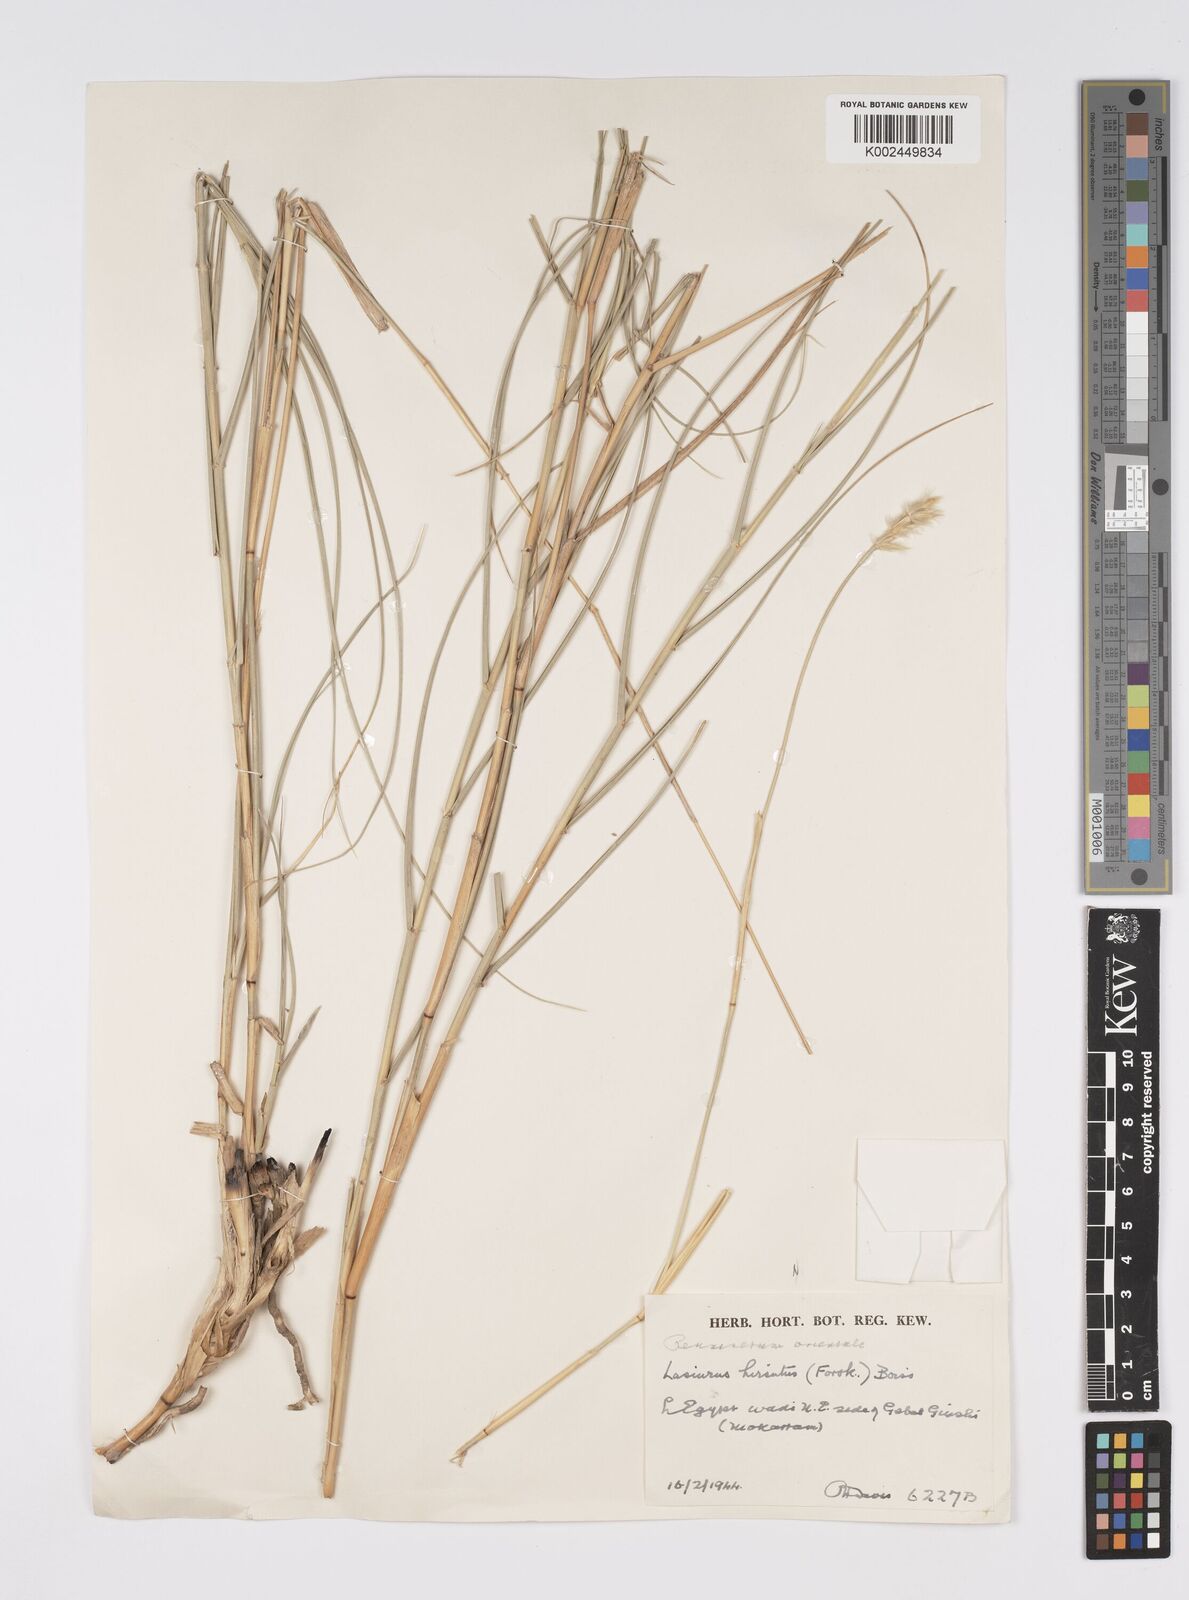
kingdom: Plantae
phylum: Tracheophyta
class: Liliopsida
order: Poales
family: Poaceae
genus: Lasiurus
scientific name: Lasiurus scindicus
